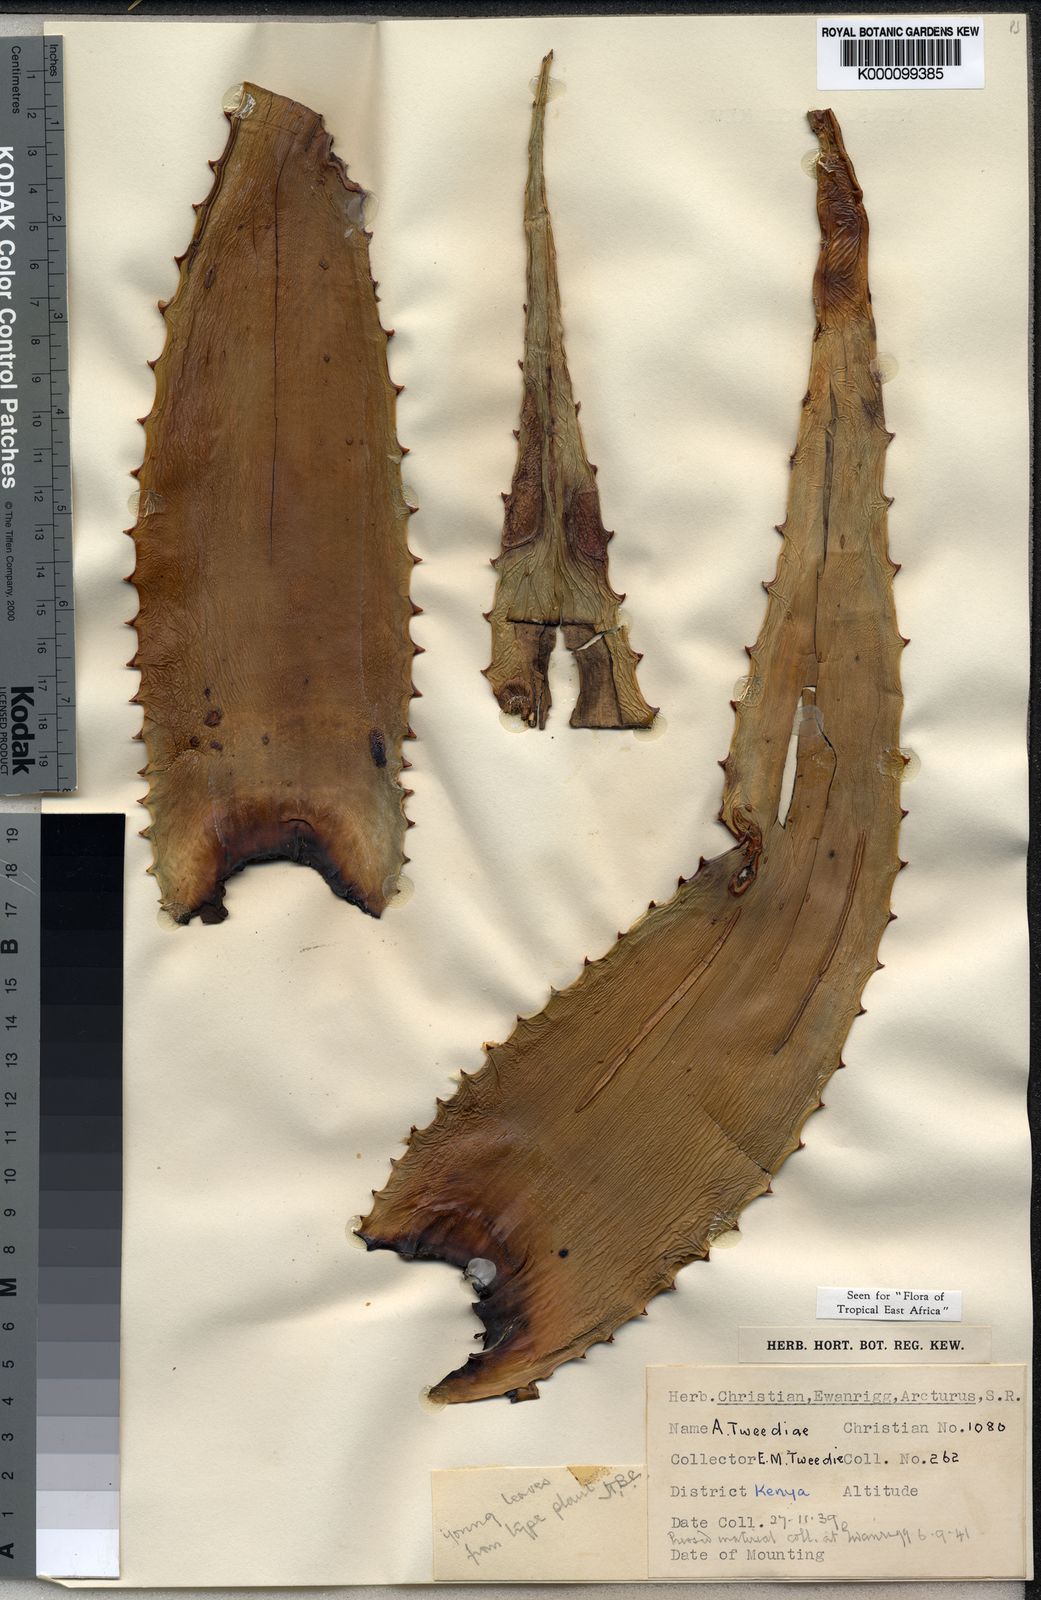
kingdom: Plantae
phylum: Tracheophyta
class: Liliopsida
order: Asparagales
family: Asphodelaceae
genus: Aloe
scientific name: Aloe
